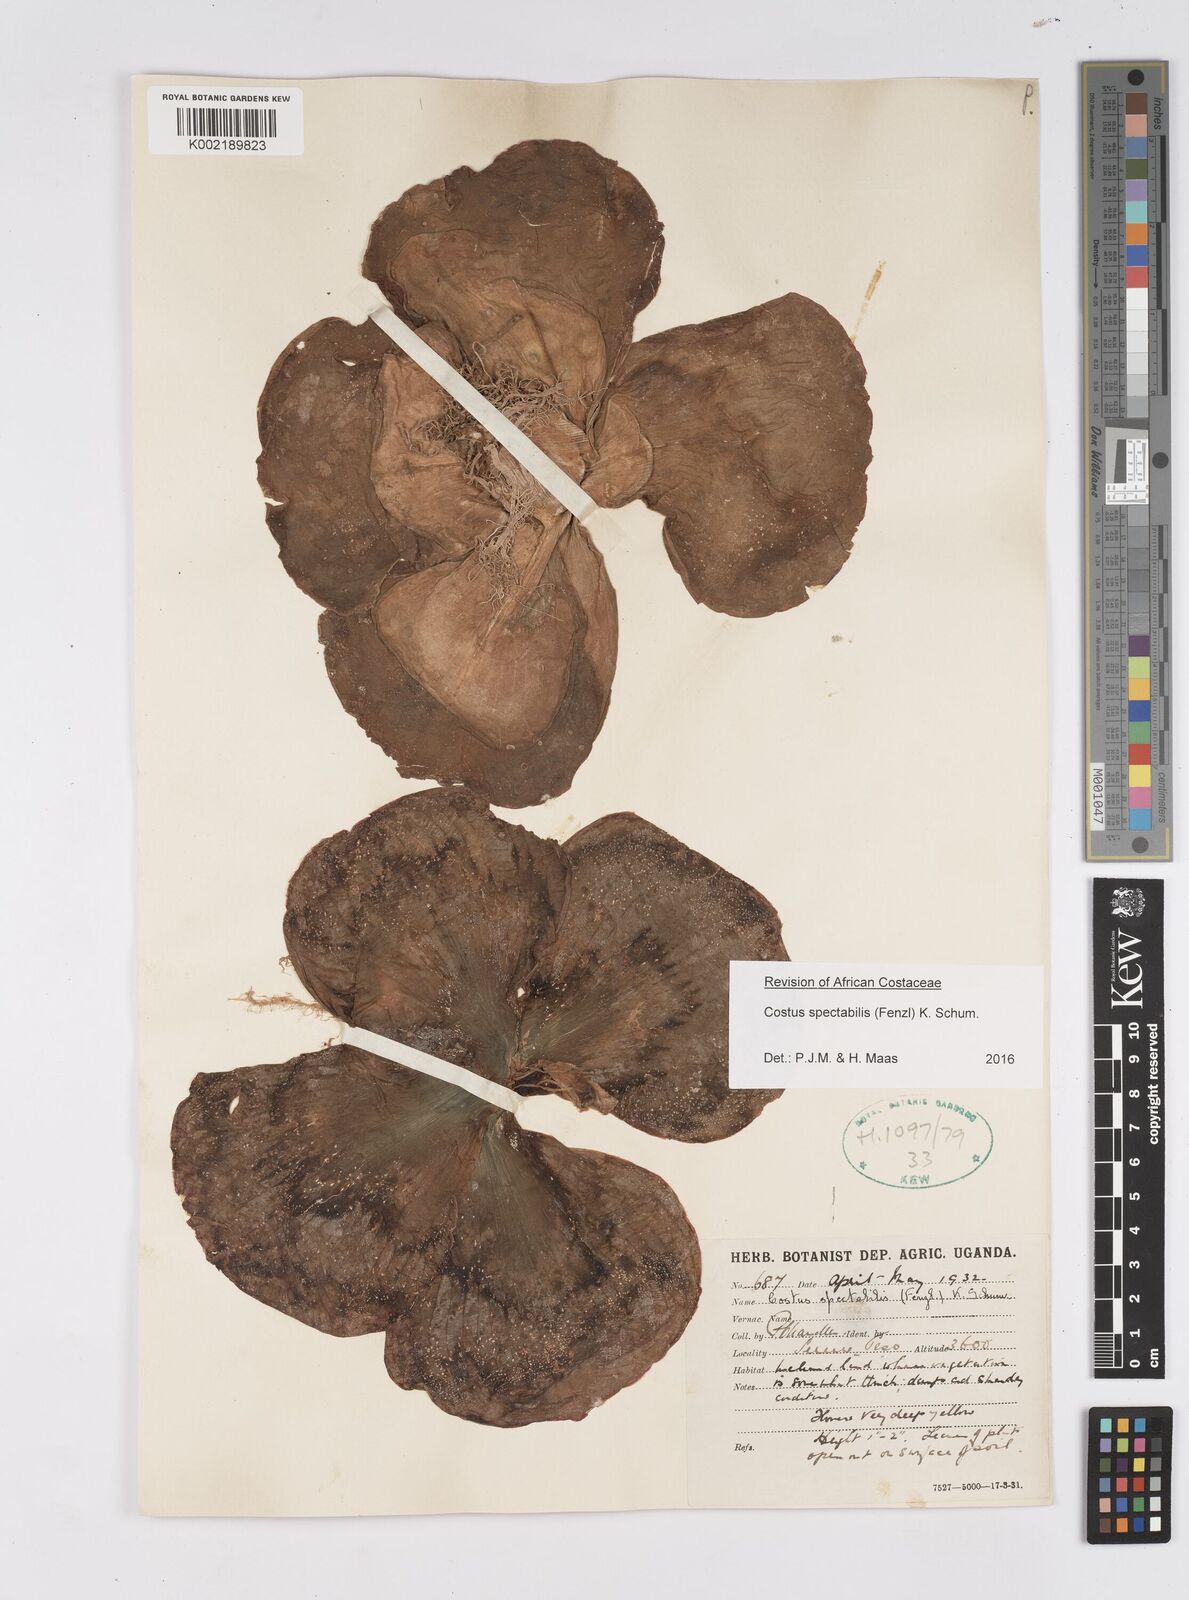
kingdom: Plantae
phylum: Tracheophyta
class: Liliopsida
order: Zingiberales
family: Costaceae
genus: Costus
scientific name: Costus spectabilis
